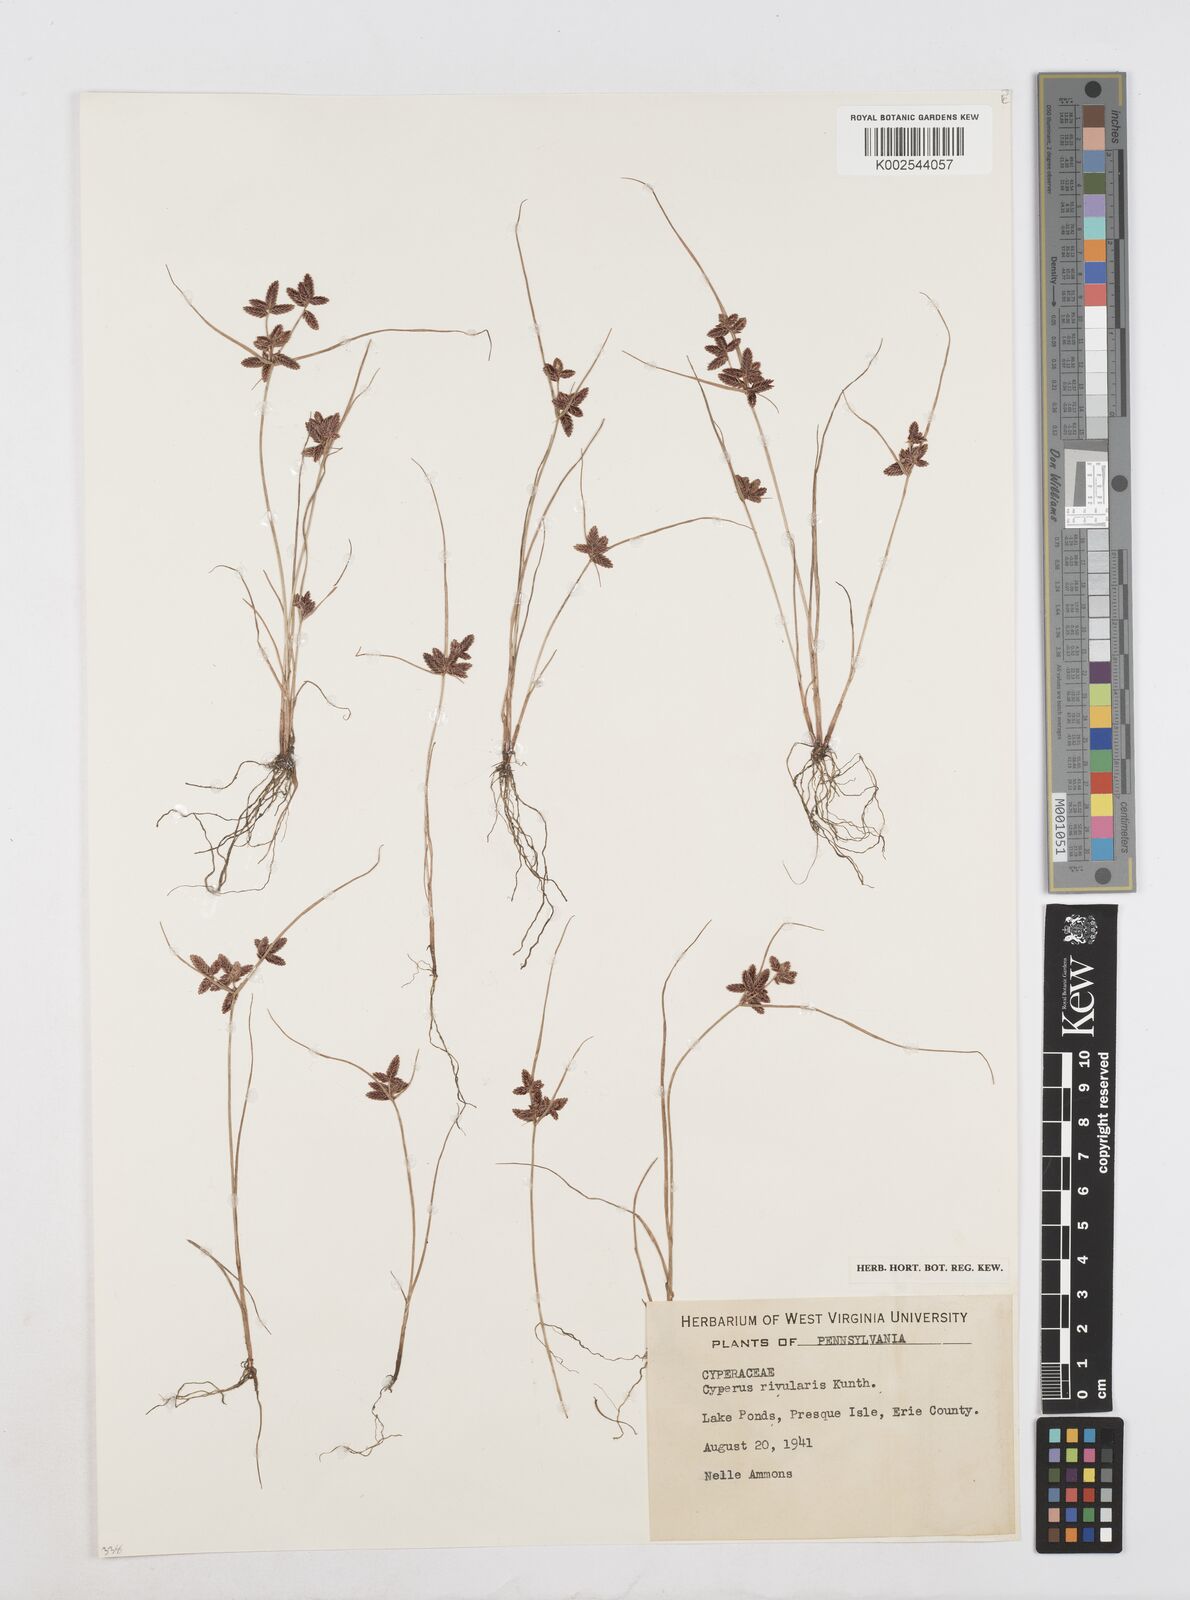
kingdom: Plantae
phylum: Tracheophyta
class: Liliopsida
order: Poales
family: Cyperaceae
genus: Cyperus
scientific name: Cyperus bipartitus
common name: Brook flatsedge
